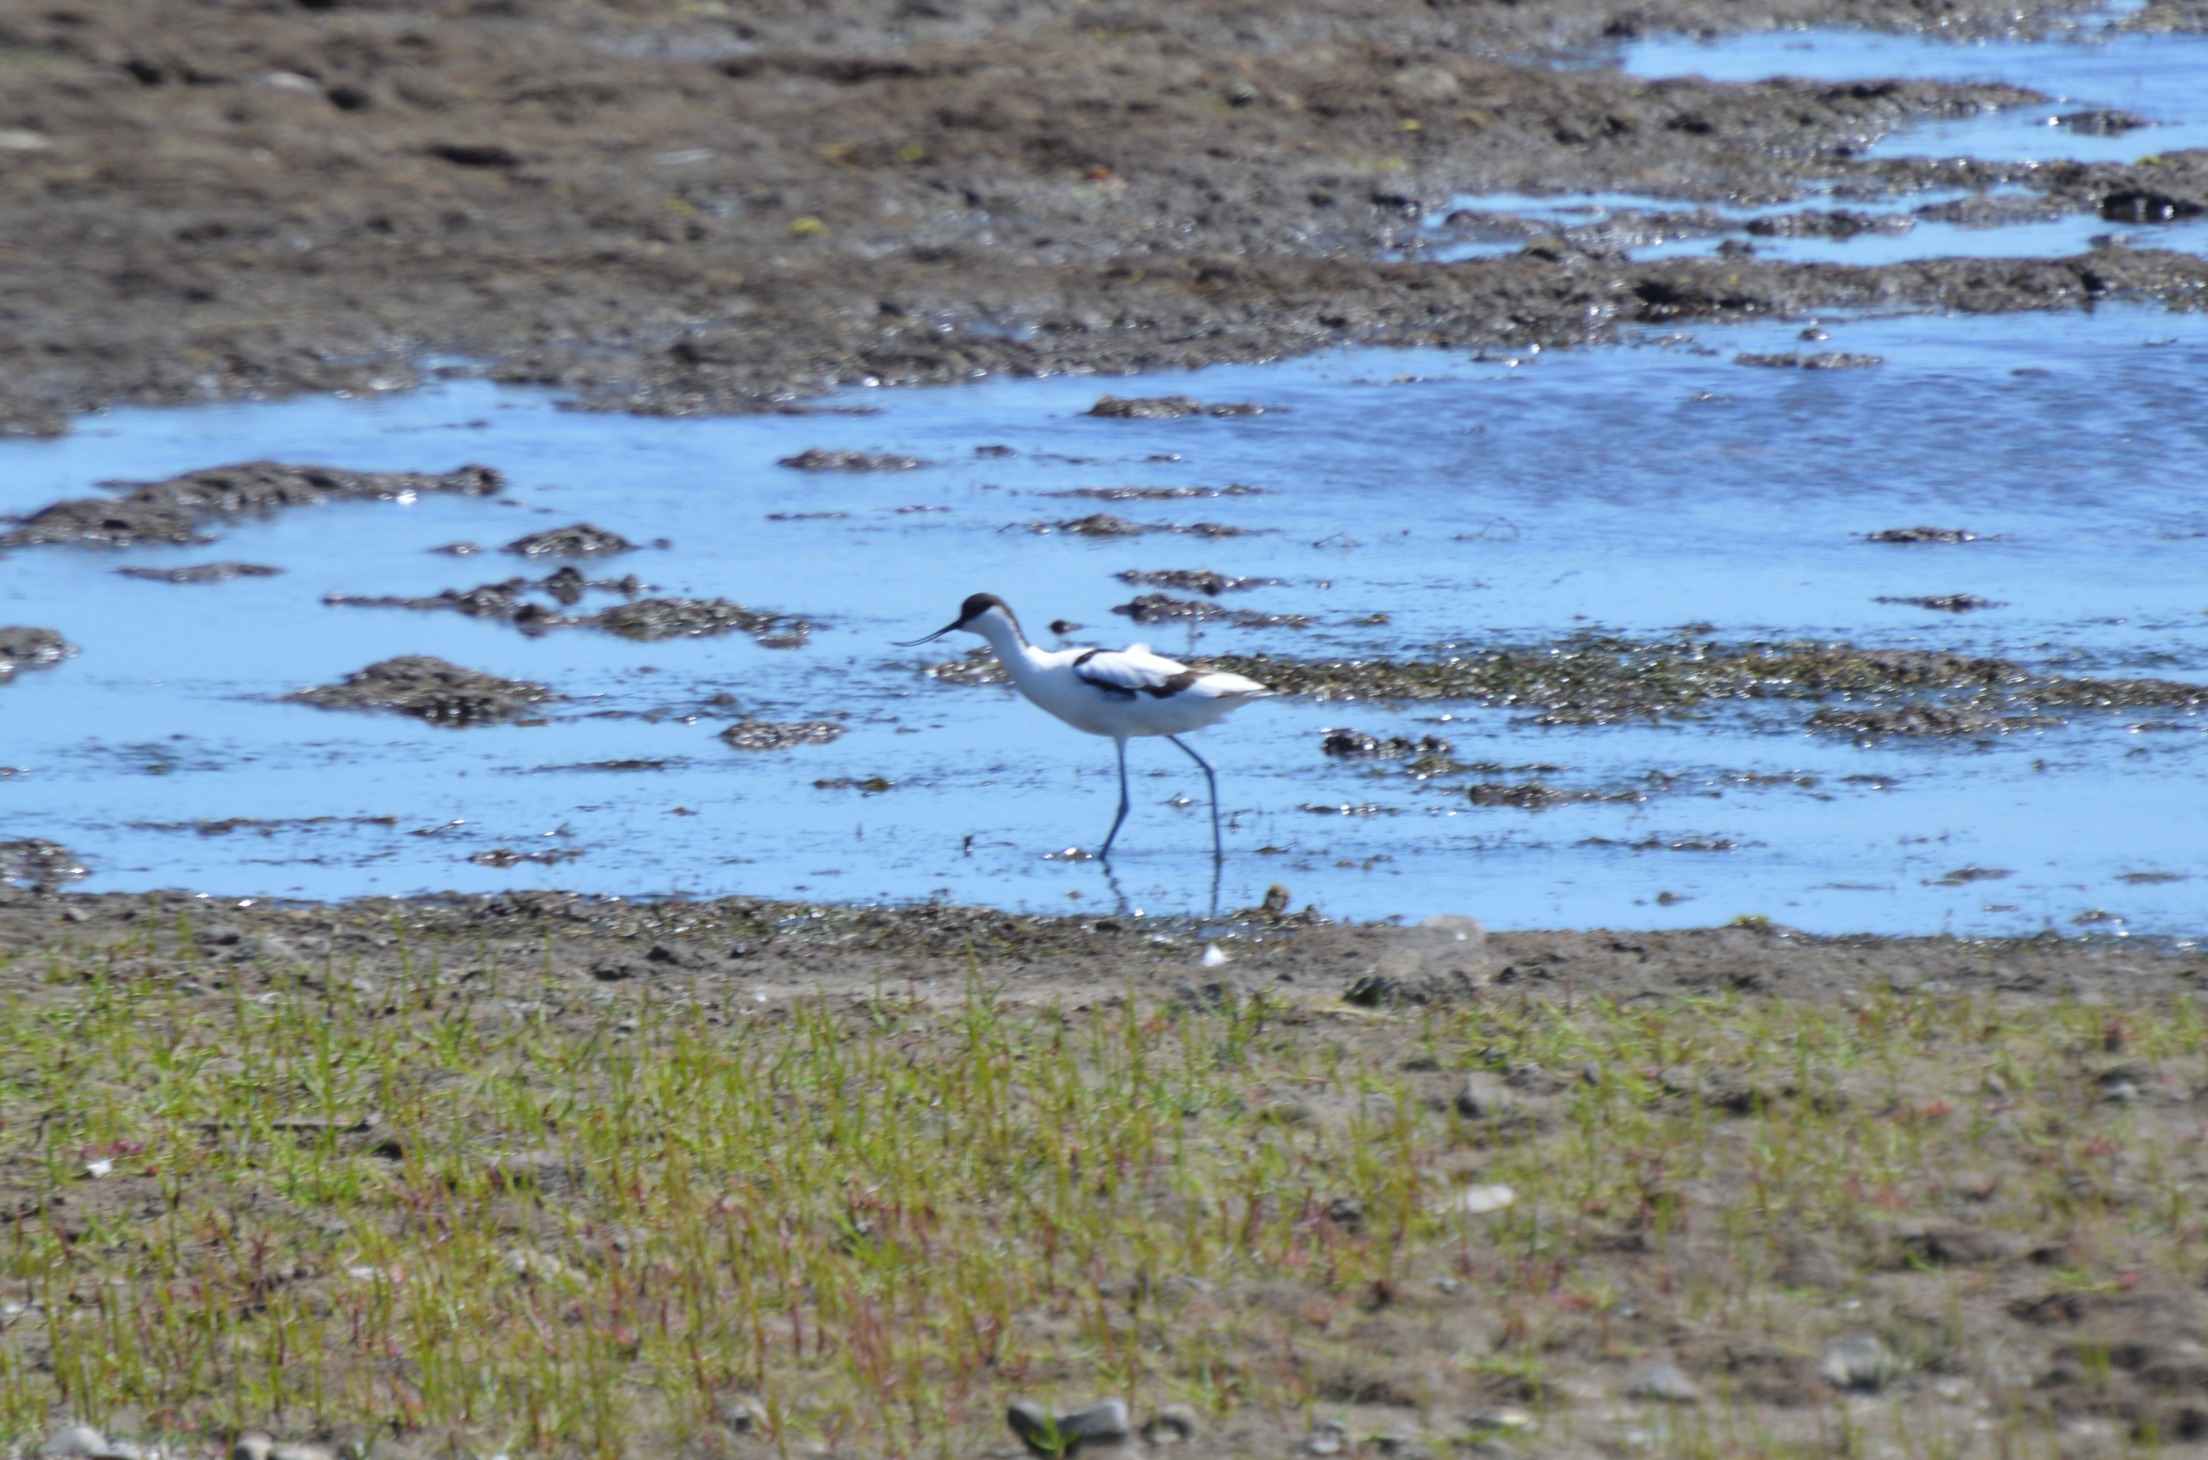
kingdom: Animalia
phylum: Chordata
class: Aves
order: Charadriiformes
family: Recurvirostridae
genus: Recurvirostra
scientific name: Recurvirostra avosetta
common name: Klyde
